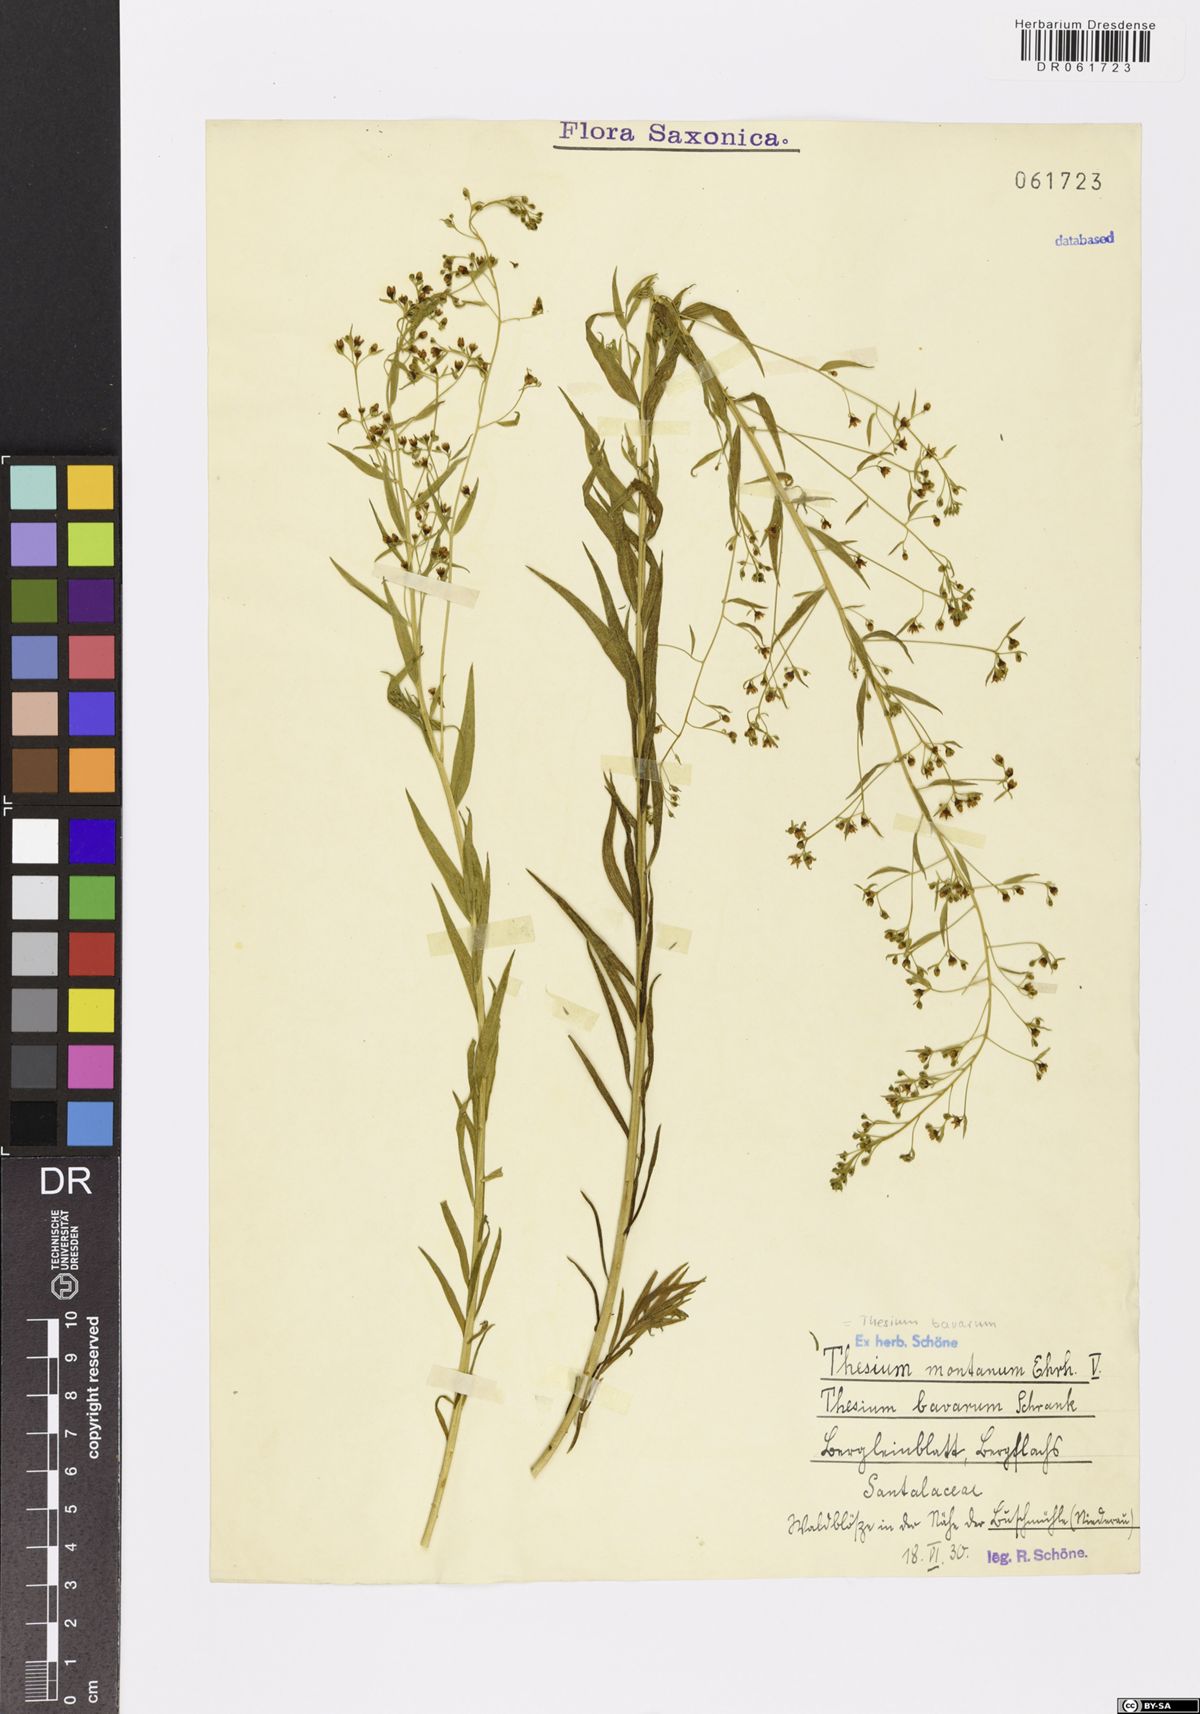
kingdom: Plantae
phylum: Tracheophyta
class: Magnoliopsida
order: Santalales
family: Thesiaceae
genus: Thesium
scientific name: Thesium bavarum
